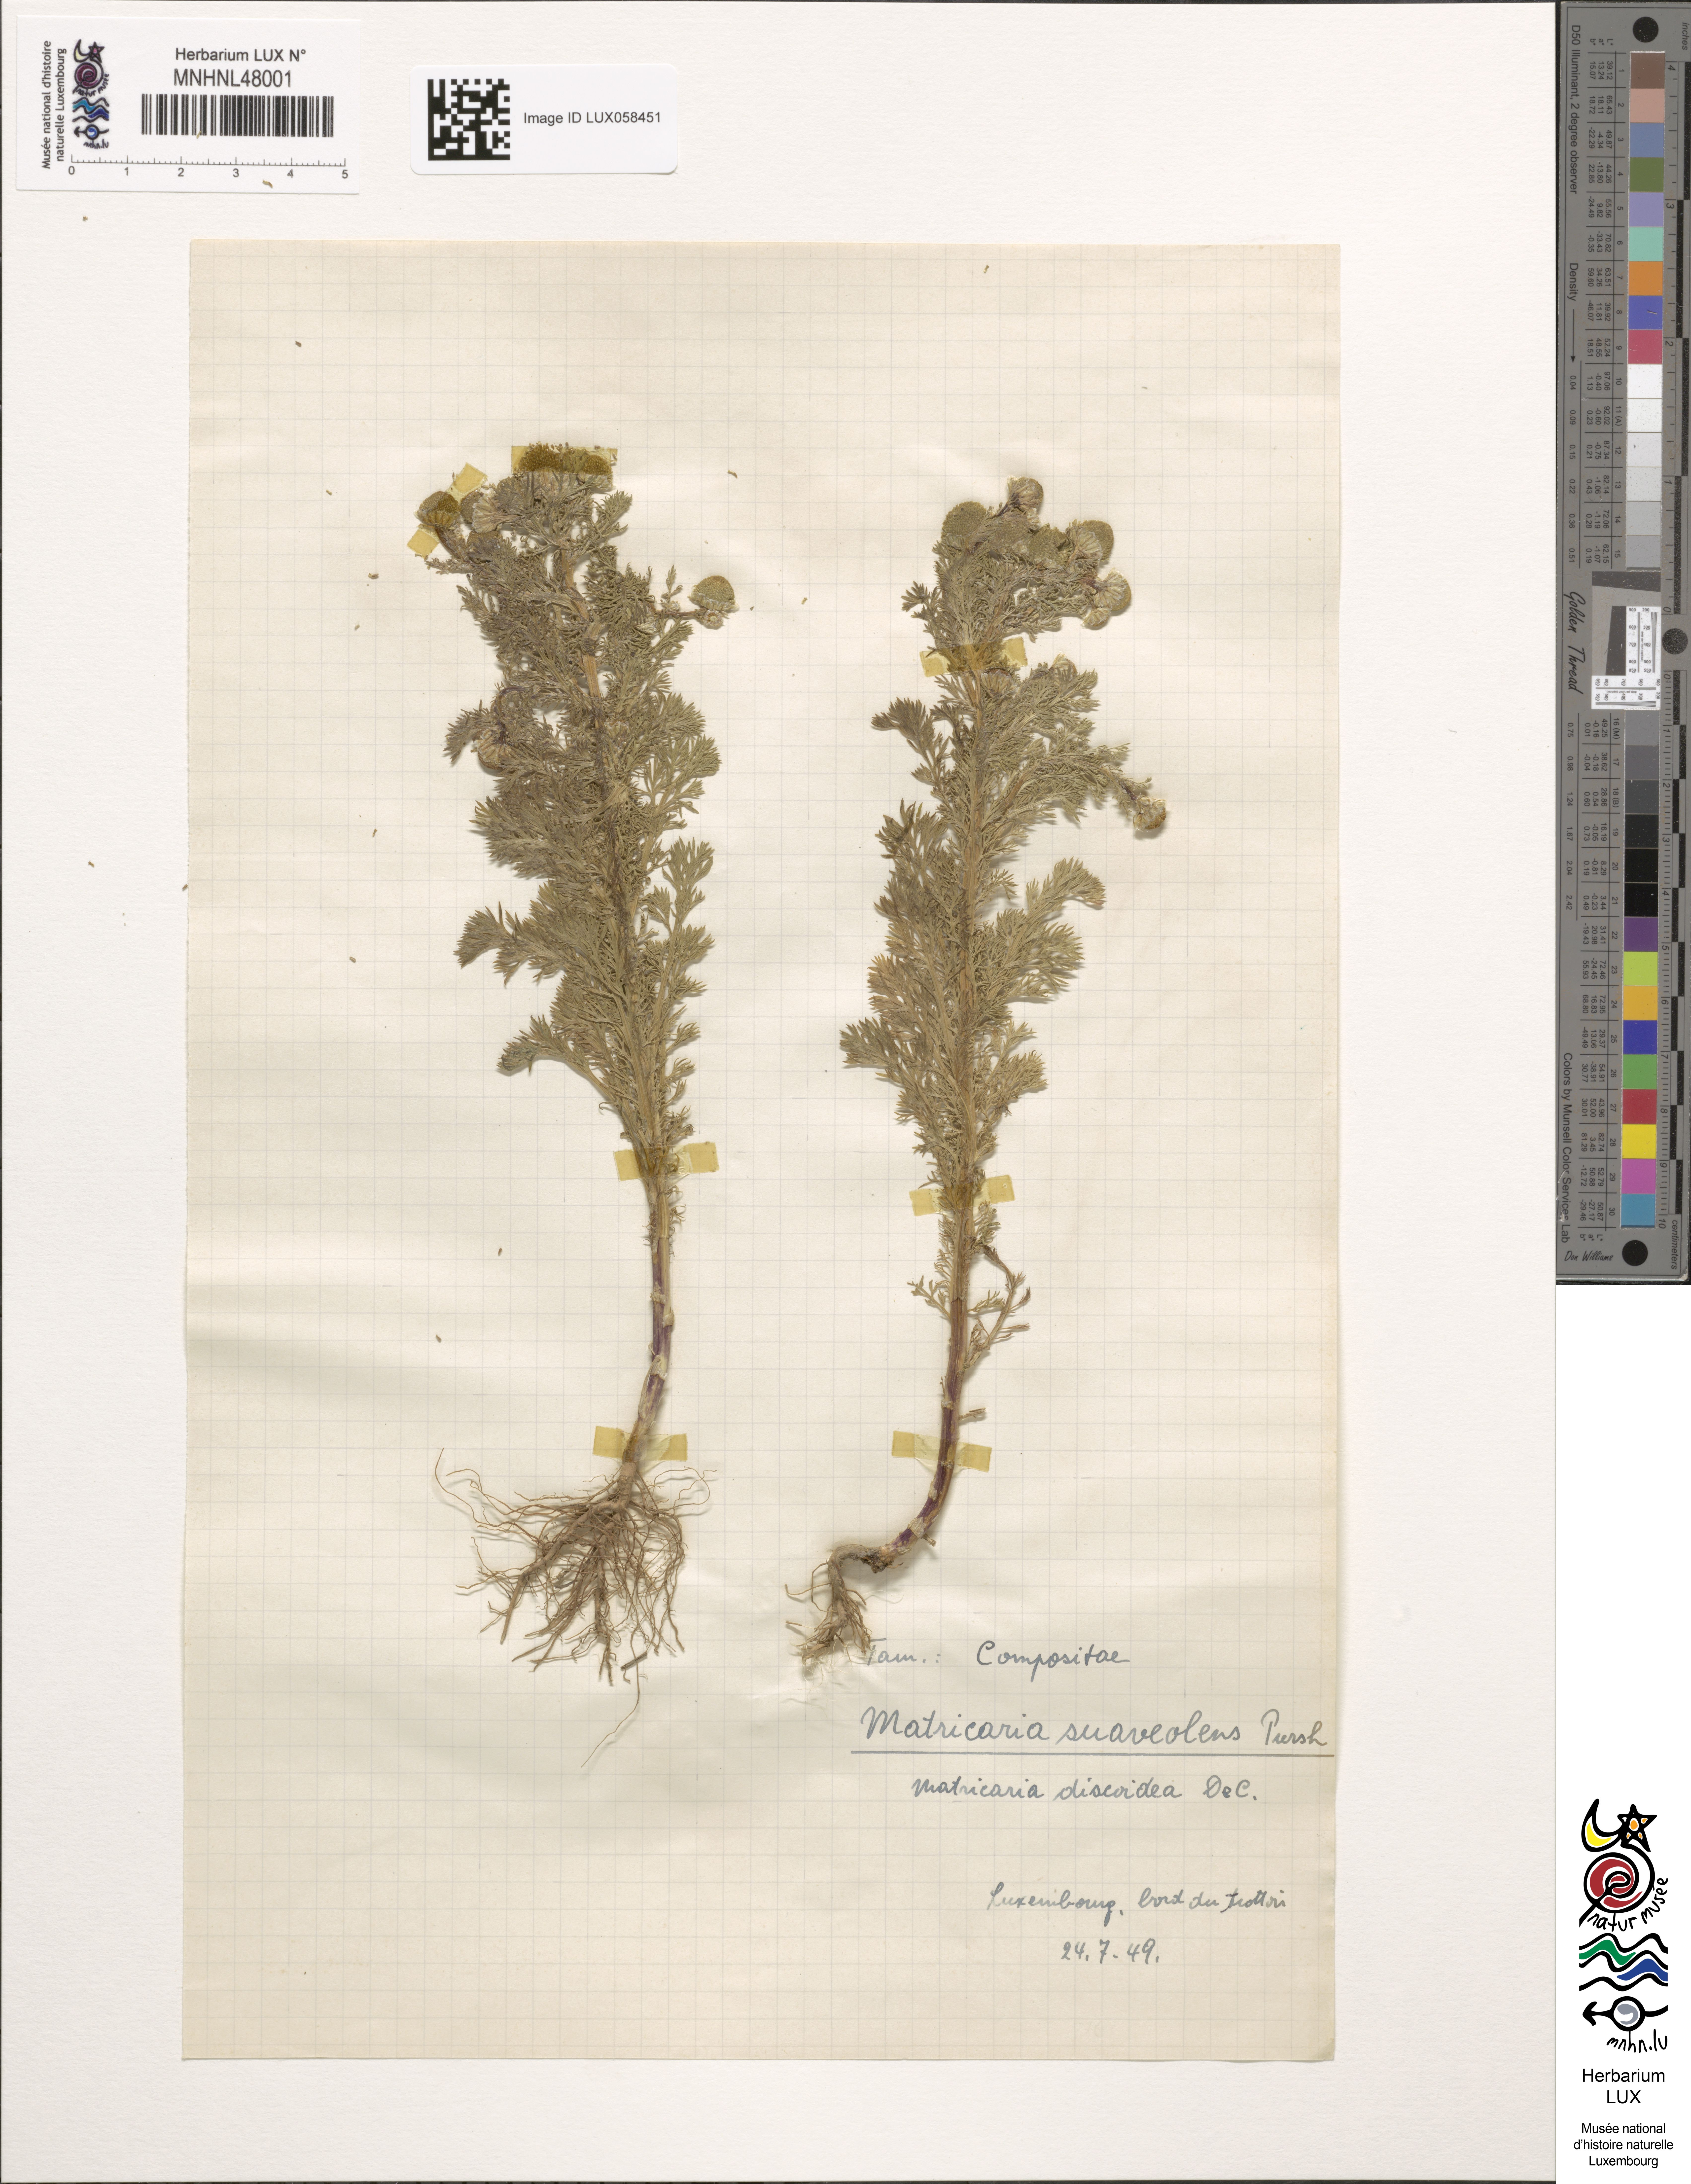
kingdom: Plantae
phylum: Tracheophyta
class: Magnoliopsida
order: Asterales
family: Asteraceae
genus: Matricaria
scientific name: Matricaria discoidea
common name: Disc mayweed
